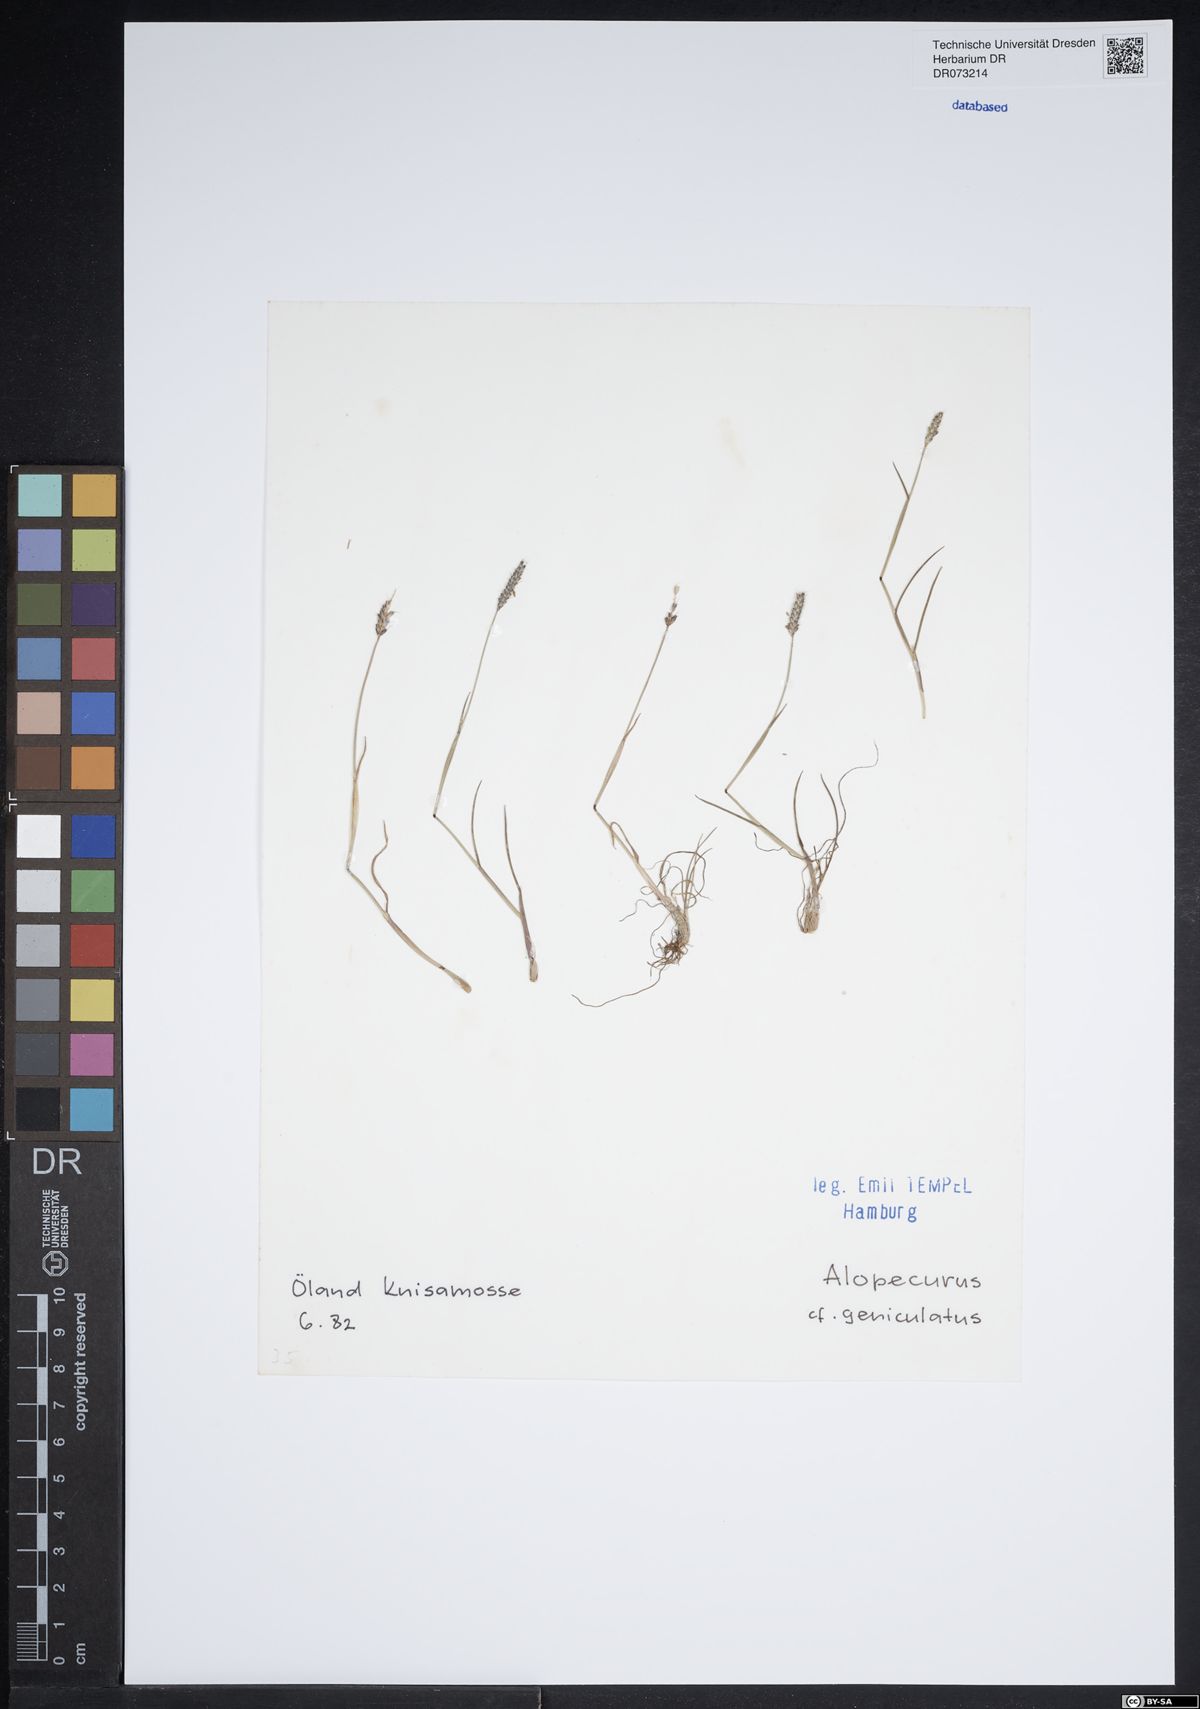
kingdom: Plantae
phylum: Tracheophyta
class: Liliopsida
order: Poales
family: Poaceae
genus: Alopecurus
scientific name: Alopecurus geniculatus
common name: Water foxtail
